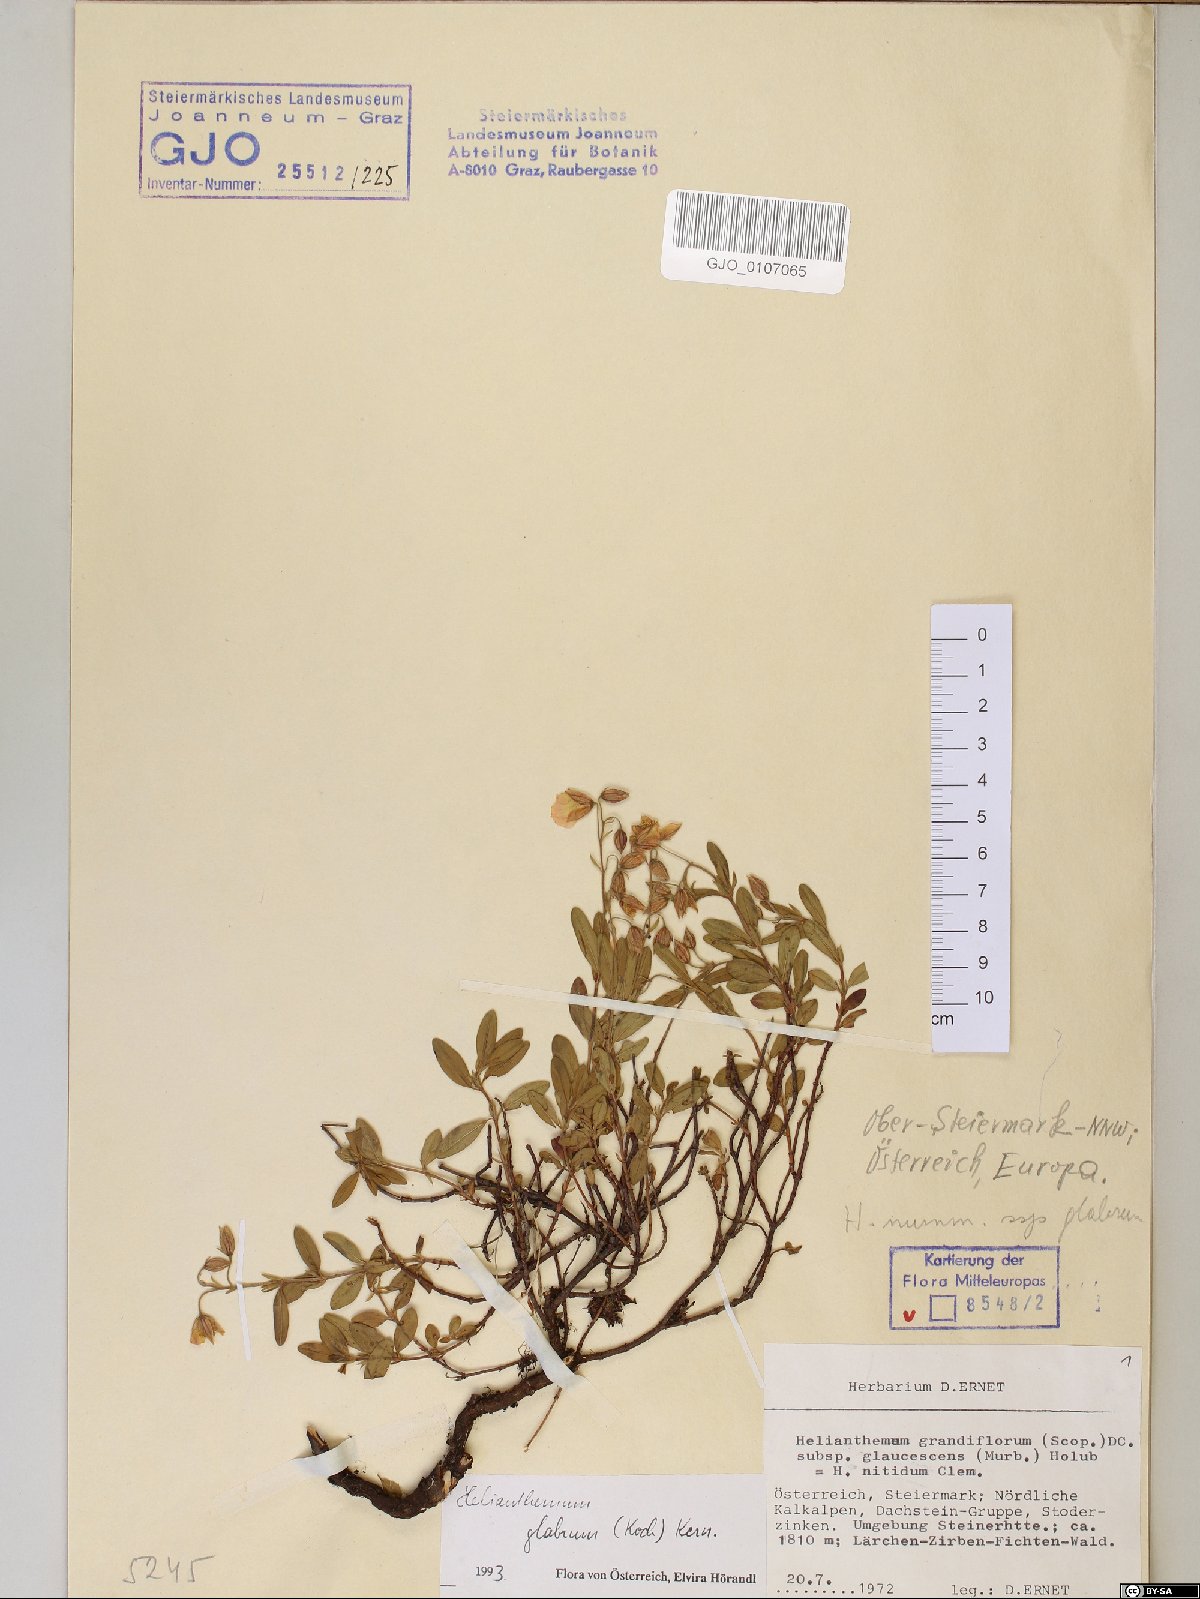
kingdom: Plantae
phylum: Tracheophyta
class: Magnoliopsida
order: Malvales
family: Cistaceae
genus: Helianthemum
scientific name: Helianthemum nummularium
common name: Common rock-rose
